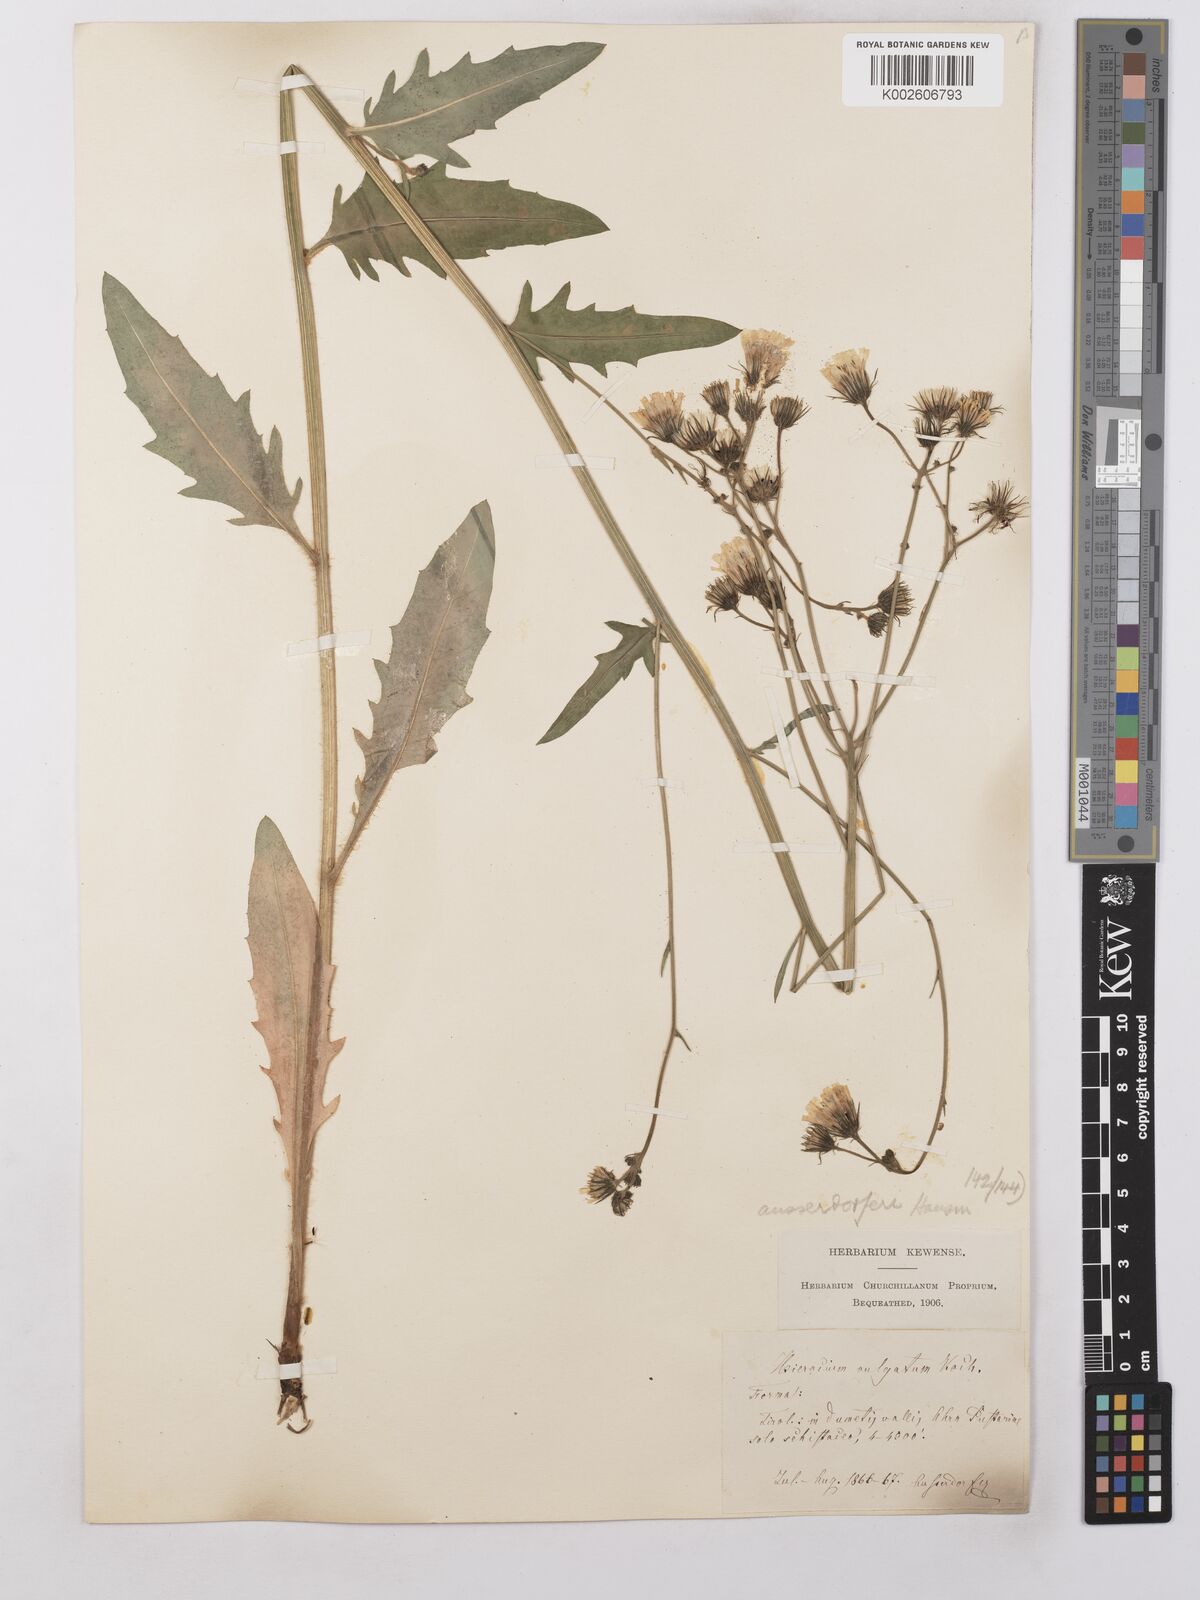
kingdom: Plantae
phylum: Tracheophyta
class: Magnoliopsida
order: Asterales
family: Asteraceae
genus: Hieracium
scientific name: Hieracium lachenalii
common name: Common hawkweed
